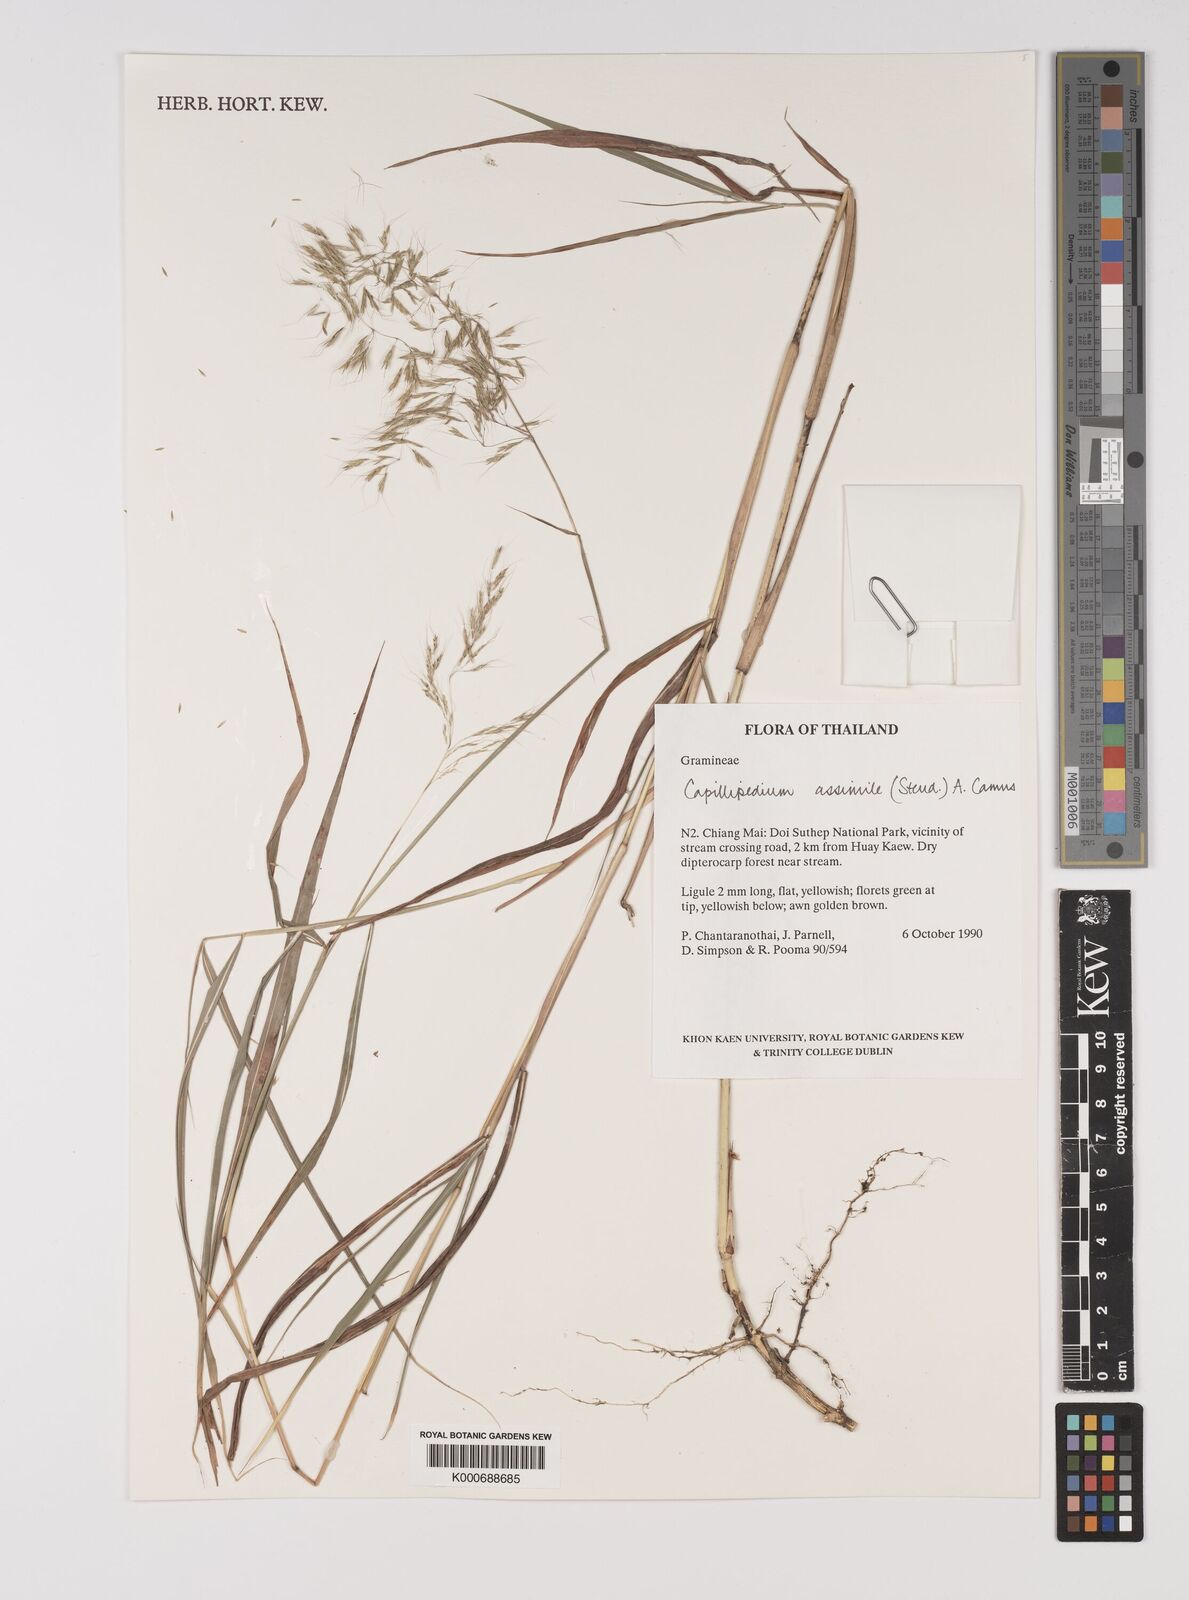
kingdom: Plantae
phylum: Tracheophyta
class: Liliopsida
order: Poales
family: Poaceae
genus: Capillipedium
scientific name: Capillipedium assimile
